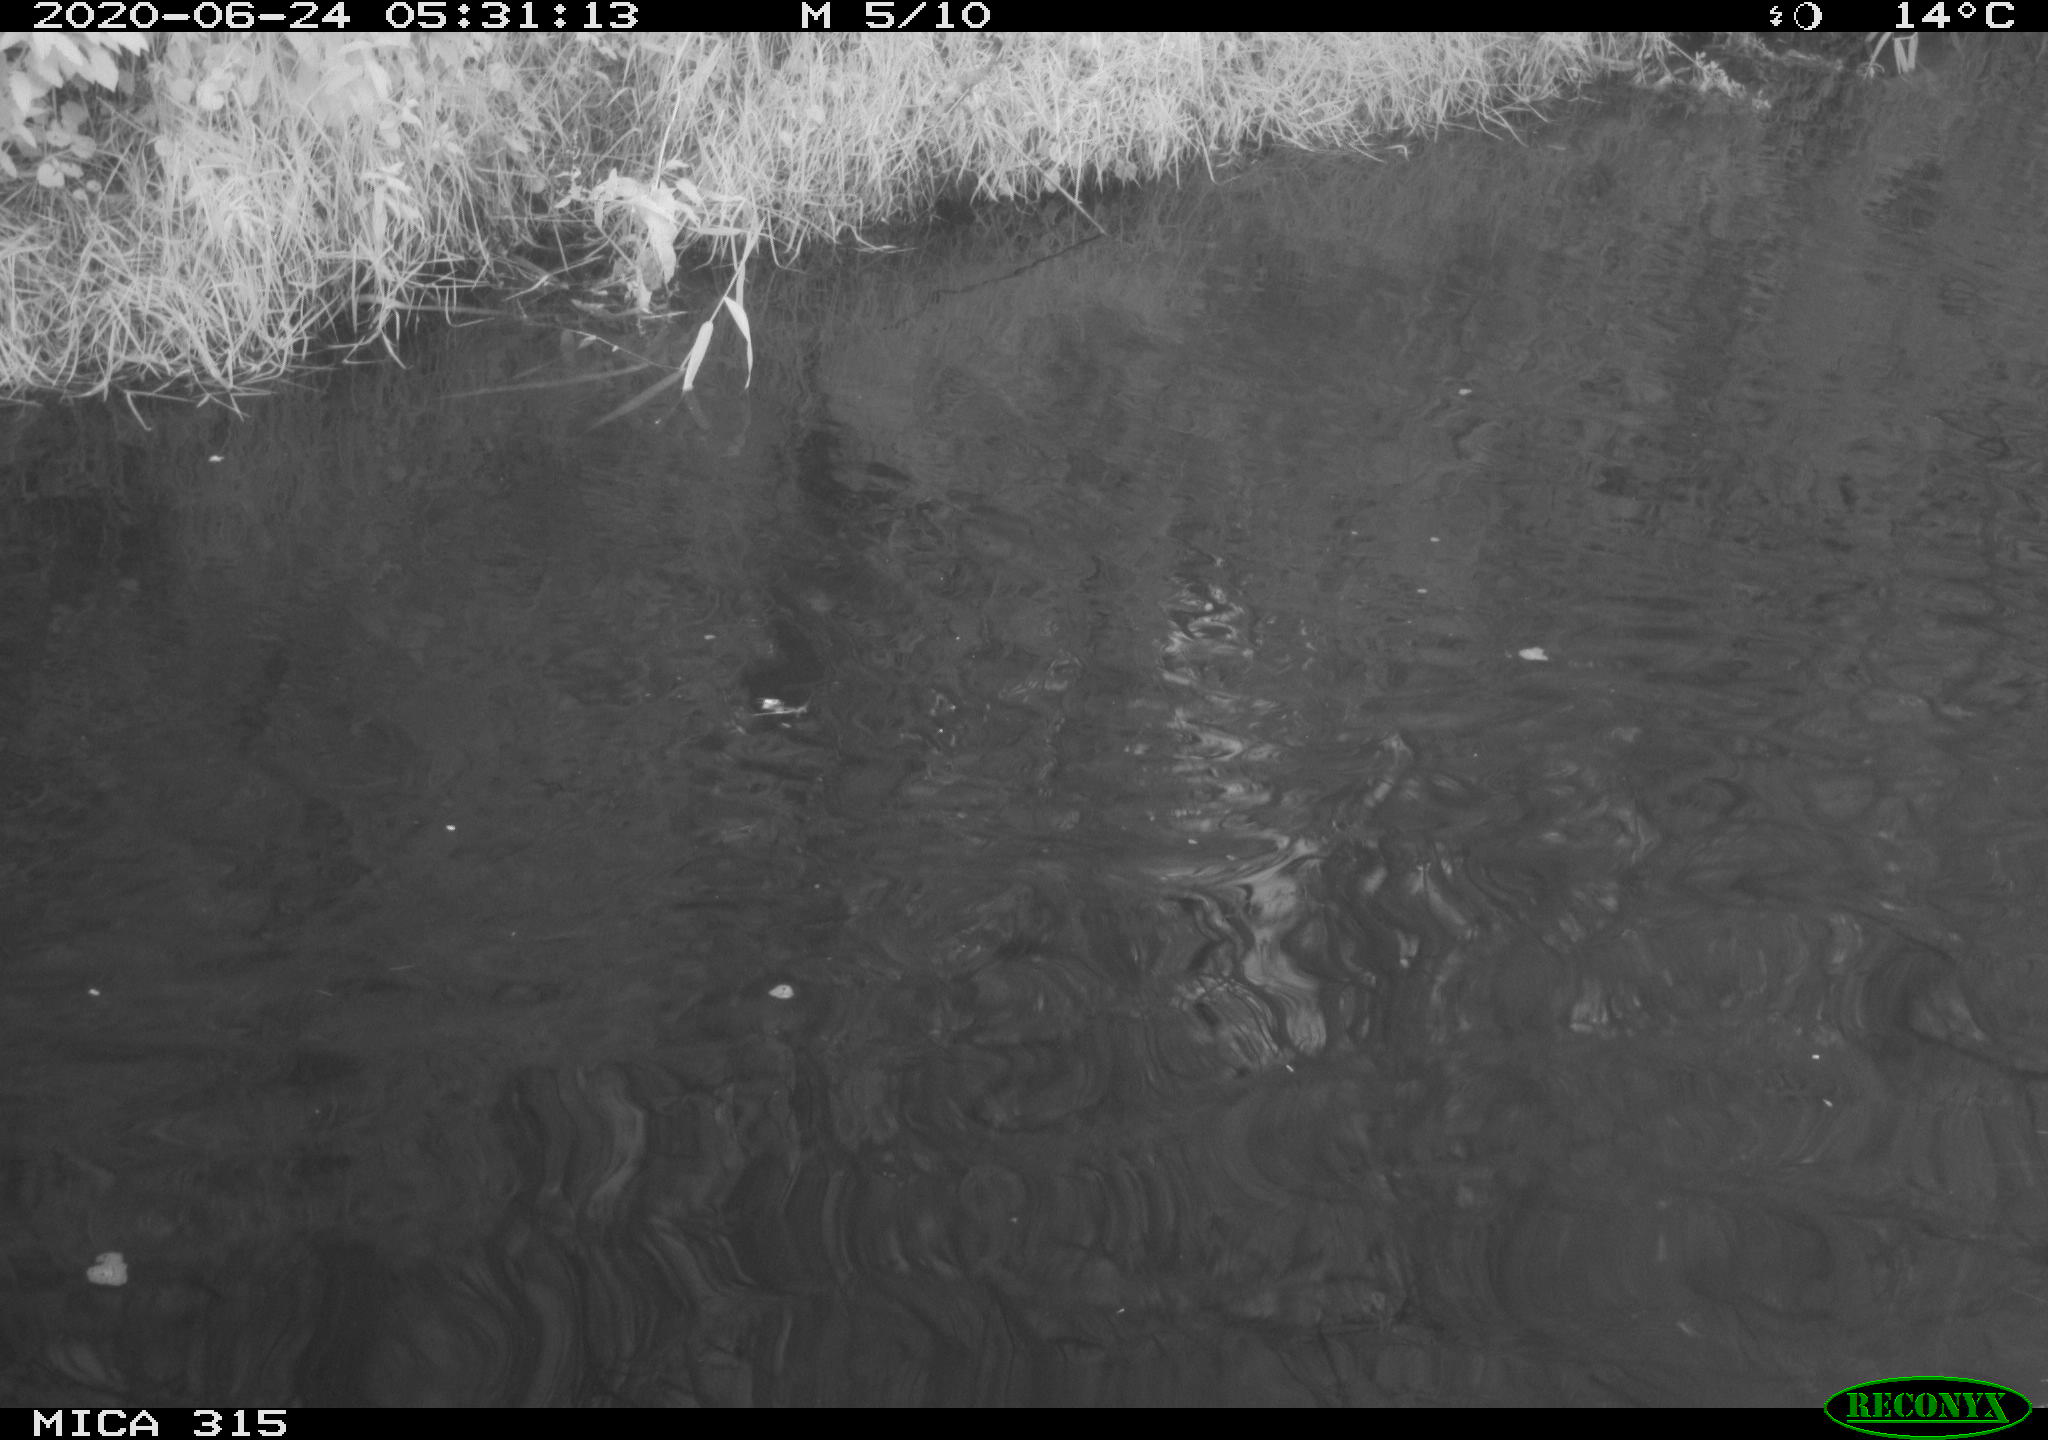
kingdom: Animalia
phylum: Chordata
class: Aves
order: Anseriformes
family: Anatidae
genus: Anas
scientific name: Anas platyrhynchos
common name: Mallard
